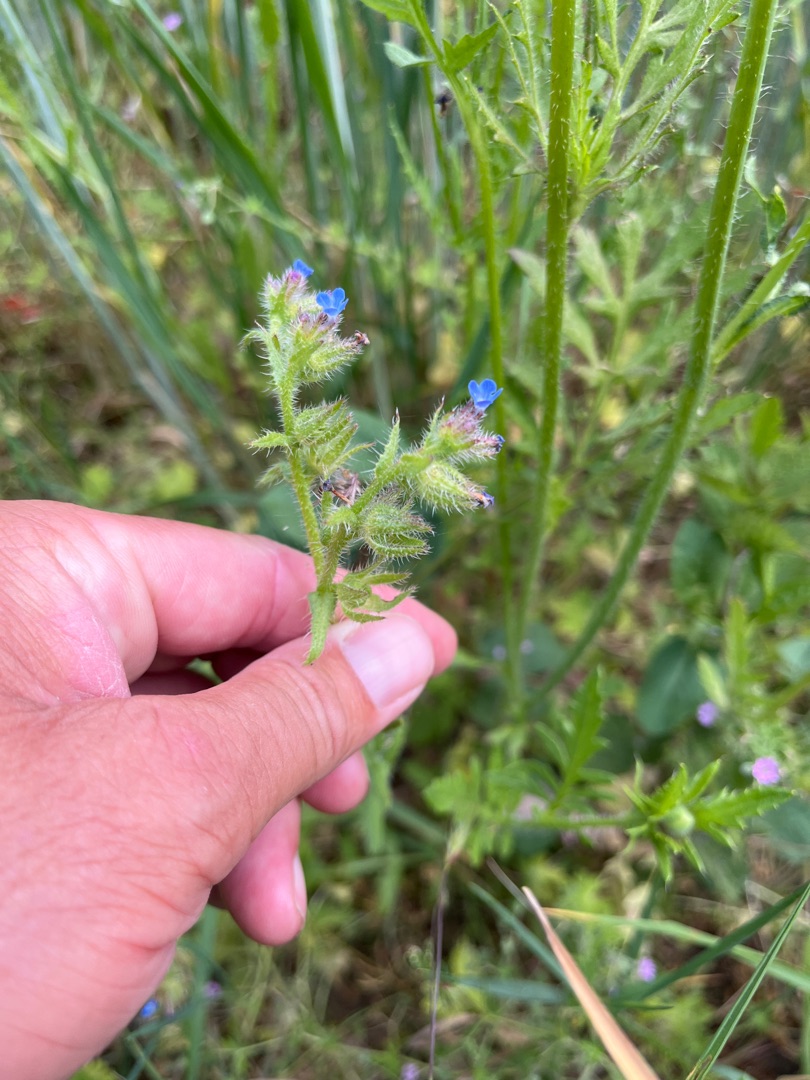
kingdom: Plantae
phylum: Tracheophyta
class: Magnoliopsida
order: Boraginales
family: Boraginaceae
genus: Lycopsis
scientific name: Lycopsis arvensis
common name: Krumhals
